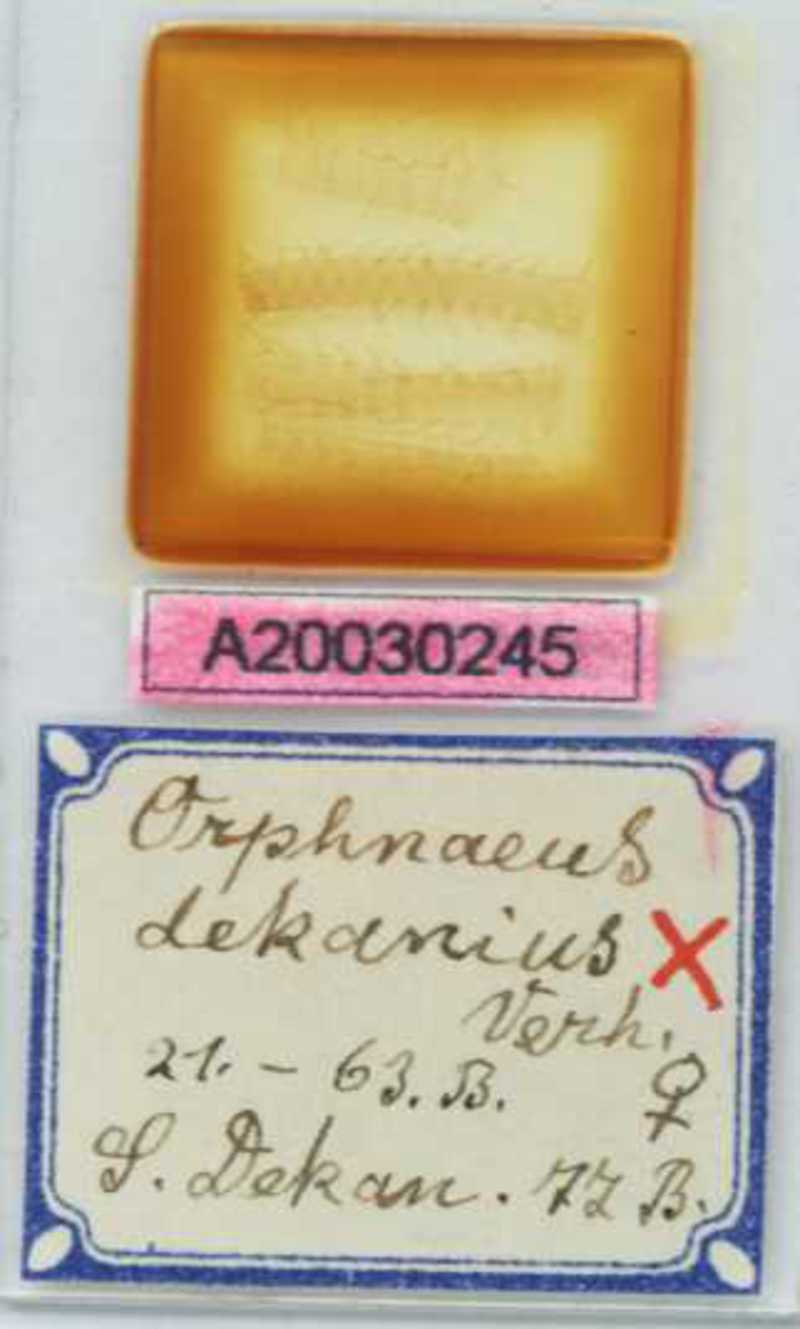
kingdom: Animalia
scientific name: Animalia
